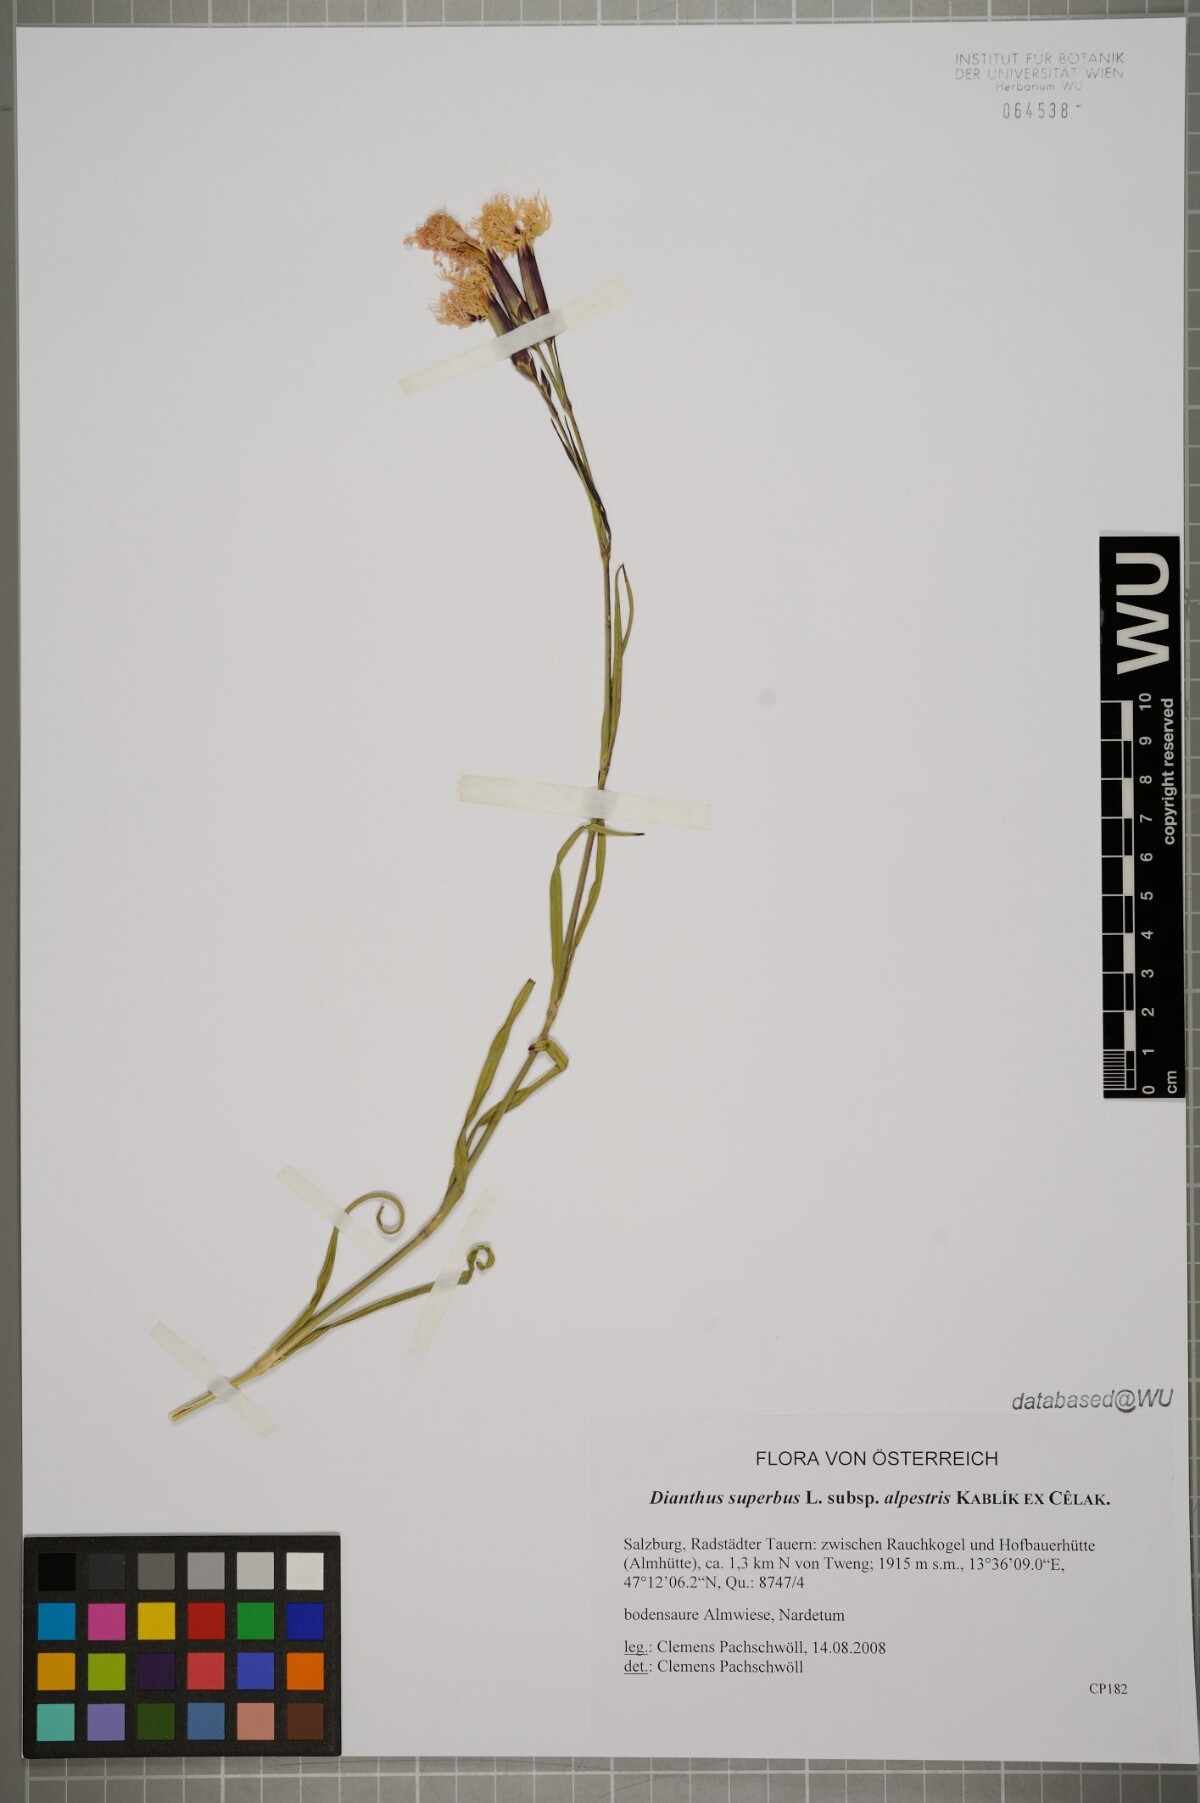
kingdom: Plantae
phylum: Tracheophyta
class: Magnoliopsida
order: Caryophyllales
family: Caryophyllaceae
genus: Dianthus
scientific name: Dianthus superbus
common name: Fringed pink
